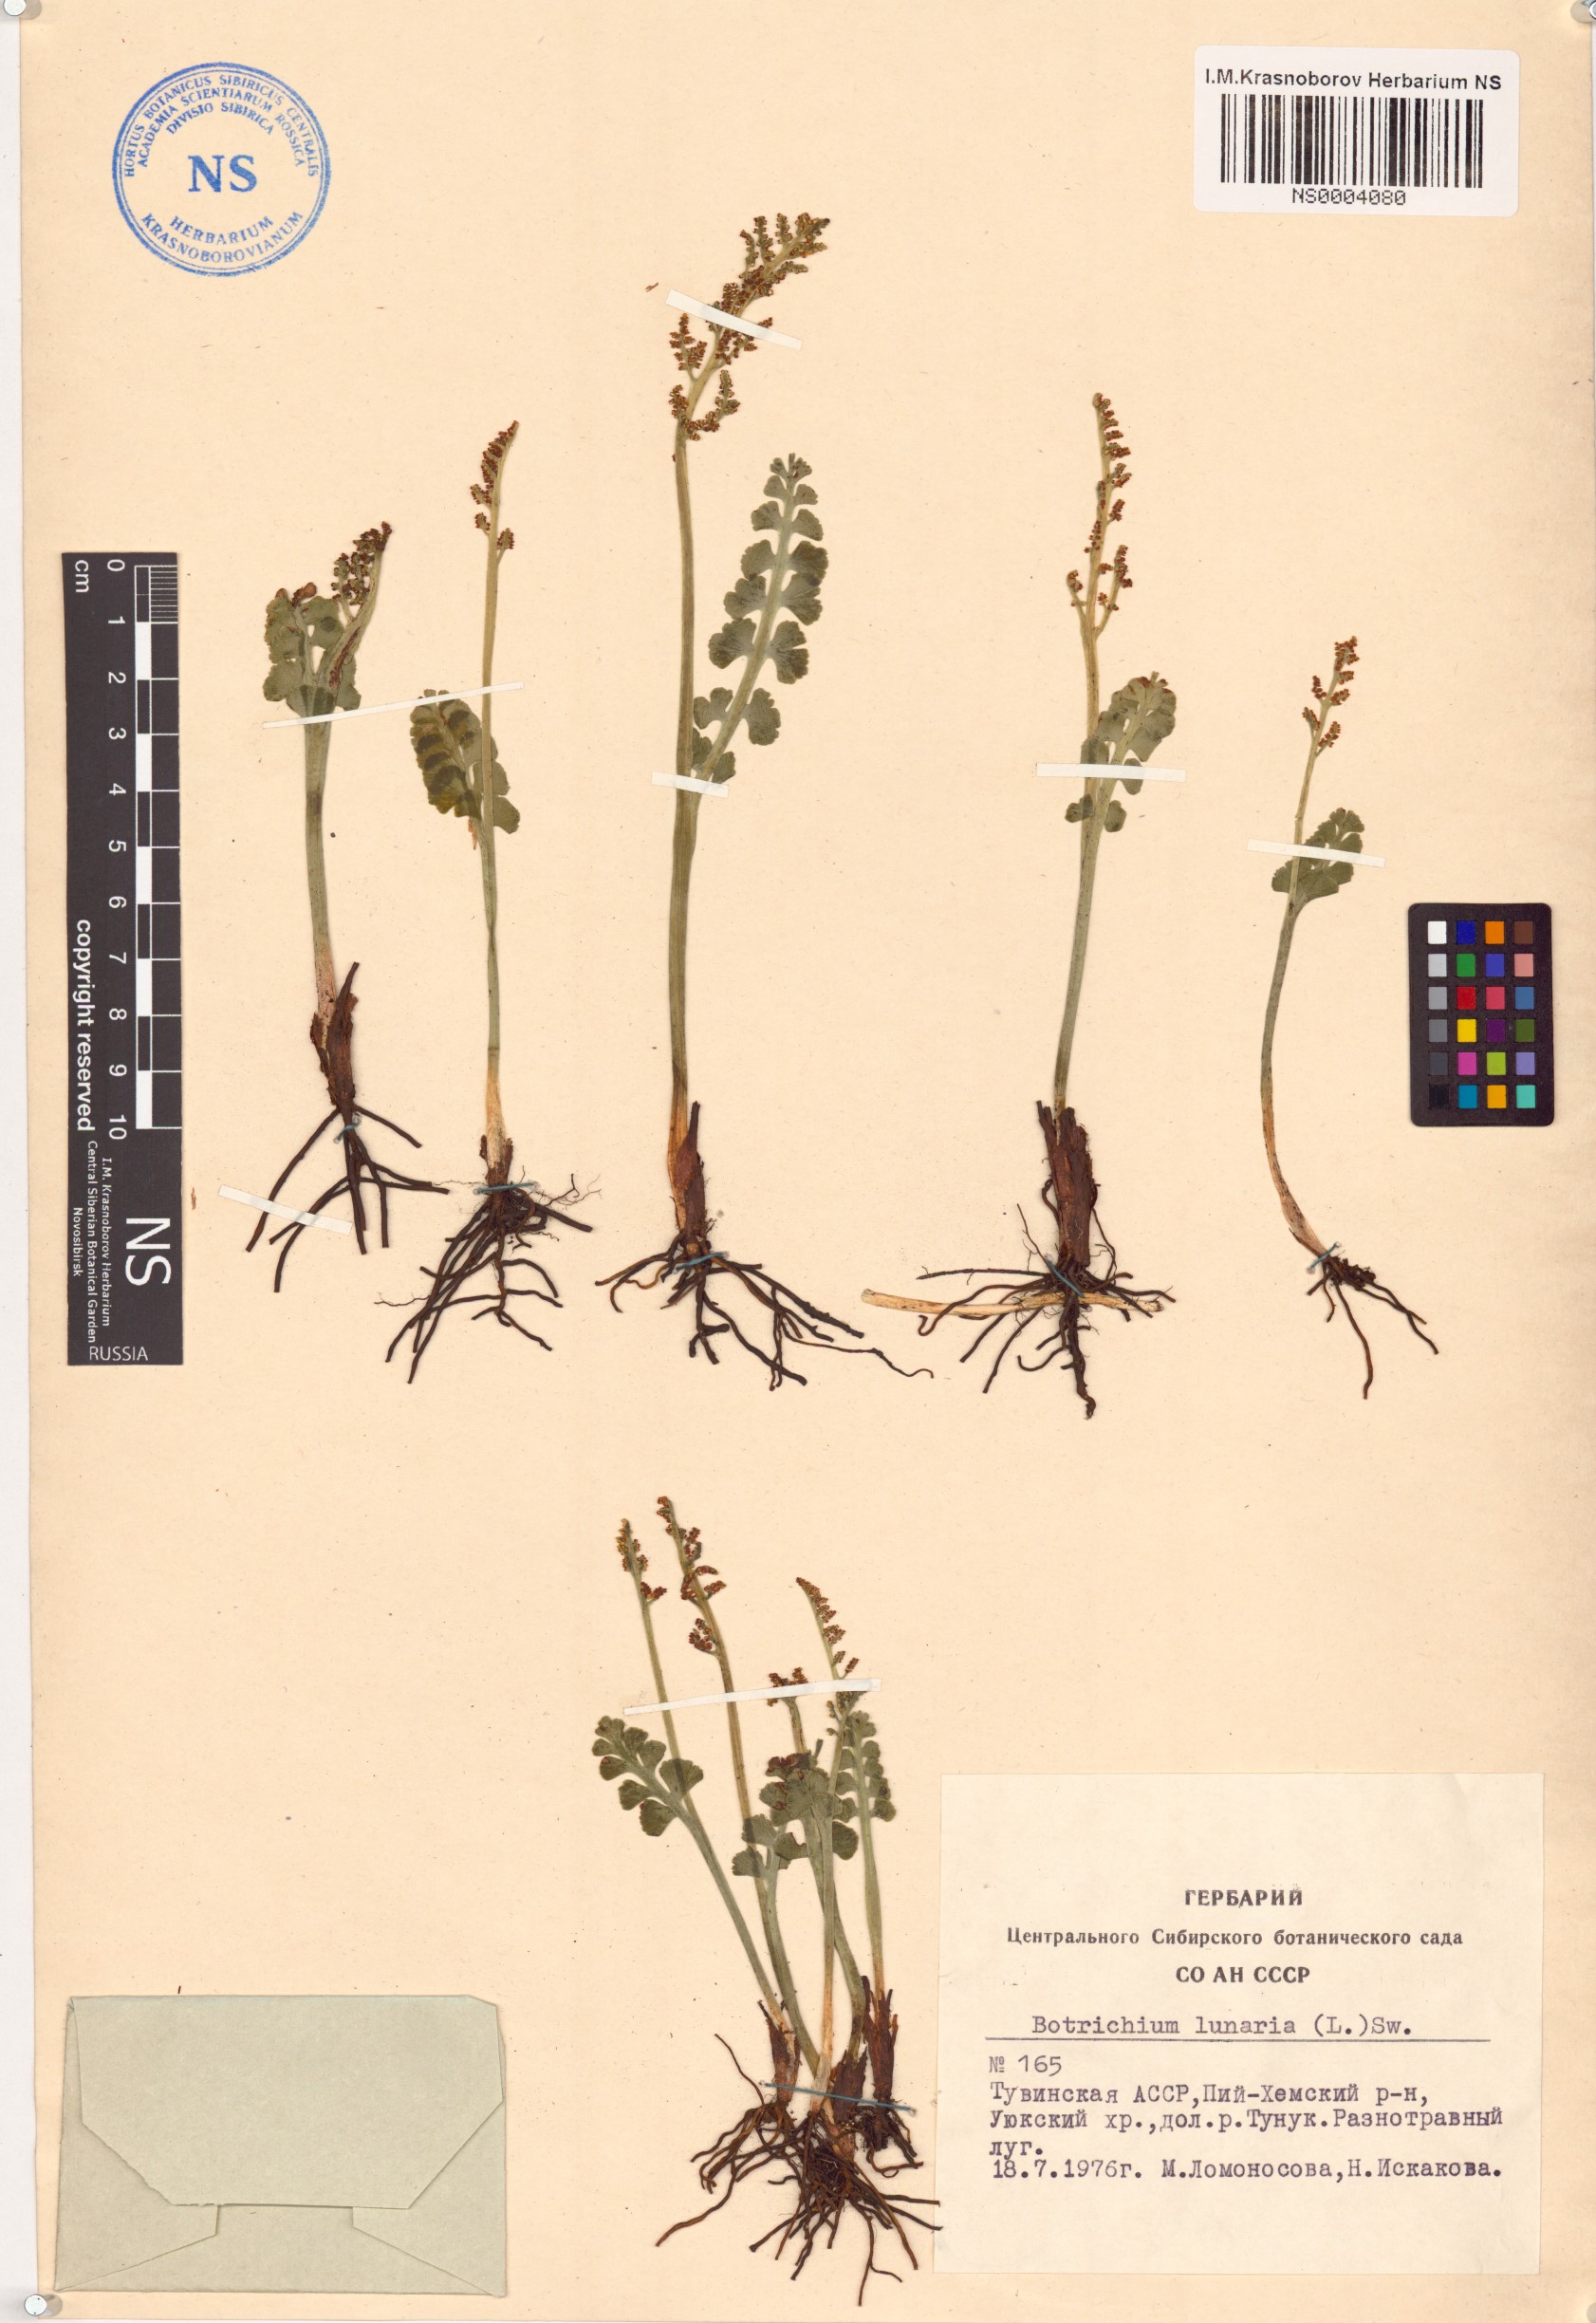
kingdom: Plantae
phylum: Tracheophyta
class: Polypodiopsida
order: Ophioglossales
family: Ophioglossaceae
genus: Botrychium
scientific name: Botrychium lunaria
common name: Moonwort
